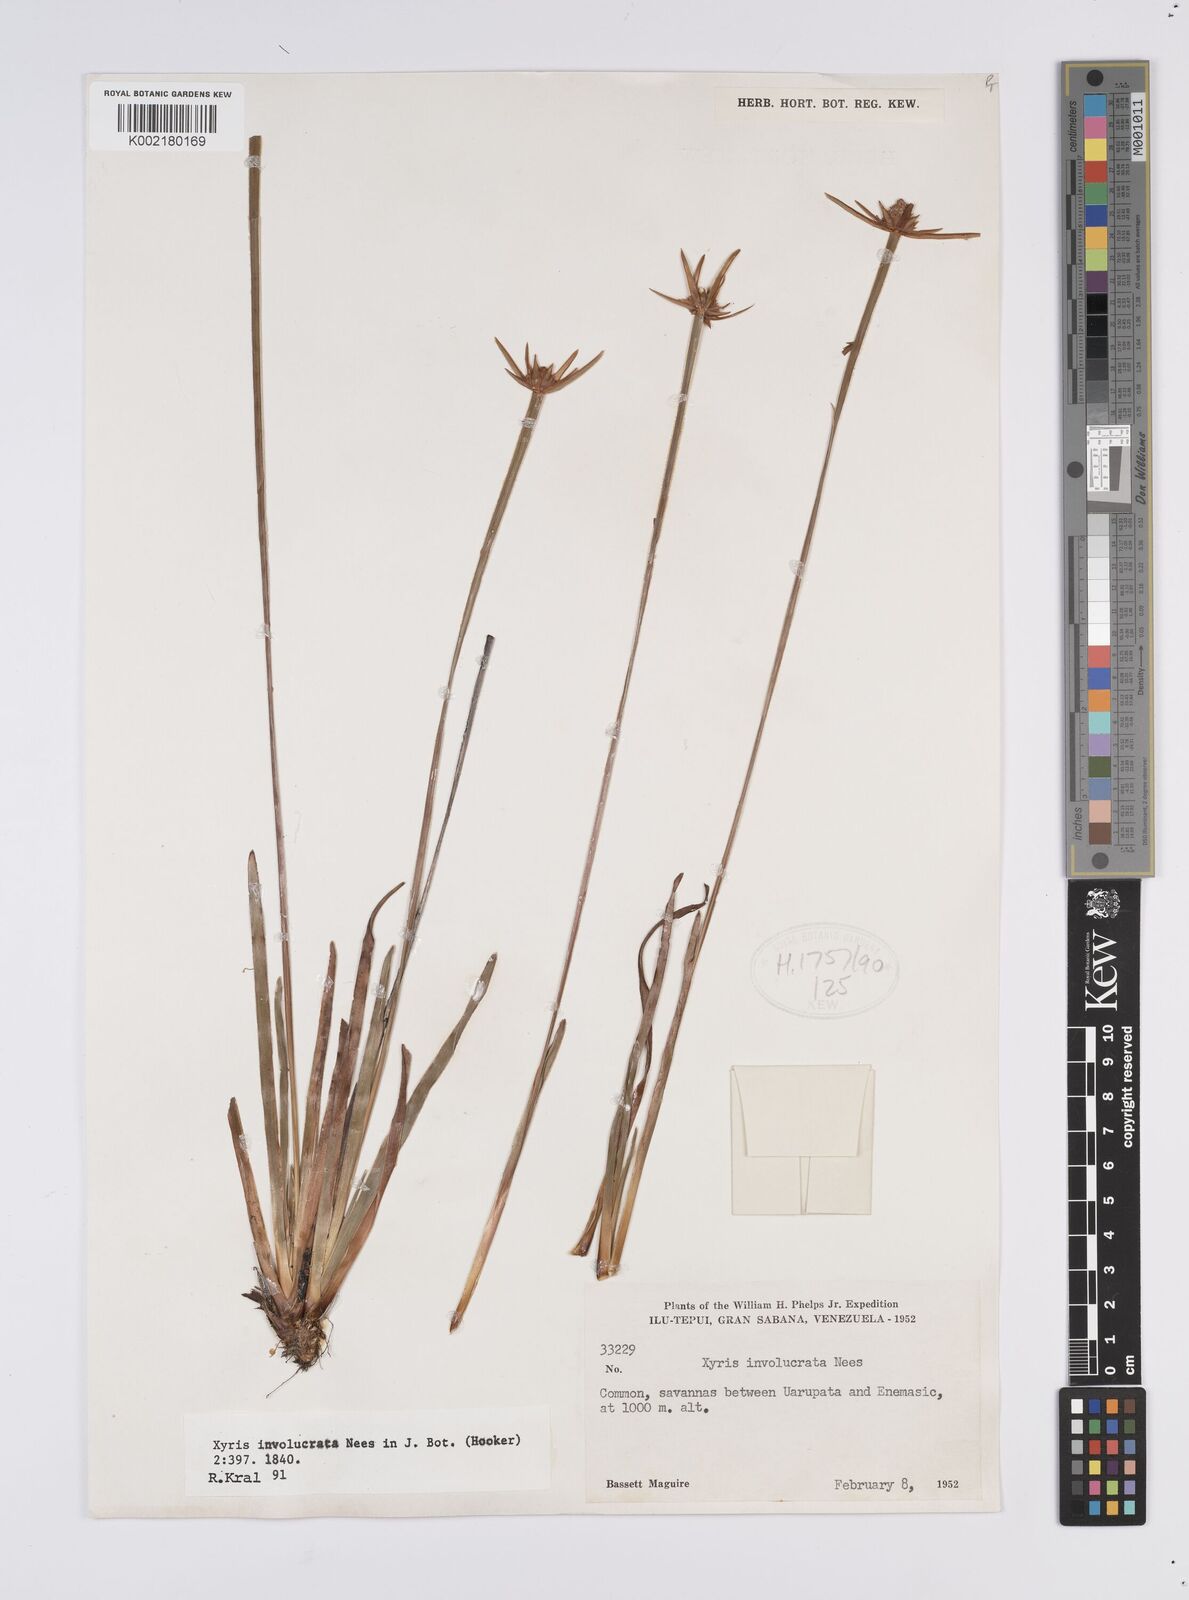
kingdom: Plantae
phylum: Tracheophyta
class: Liliopsida
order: Poales
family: Xyridaceae
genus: Xyris
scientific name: Xyris involucrata
